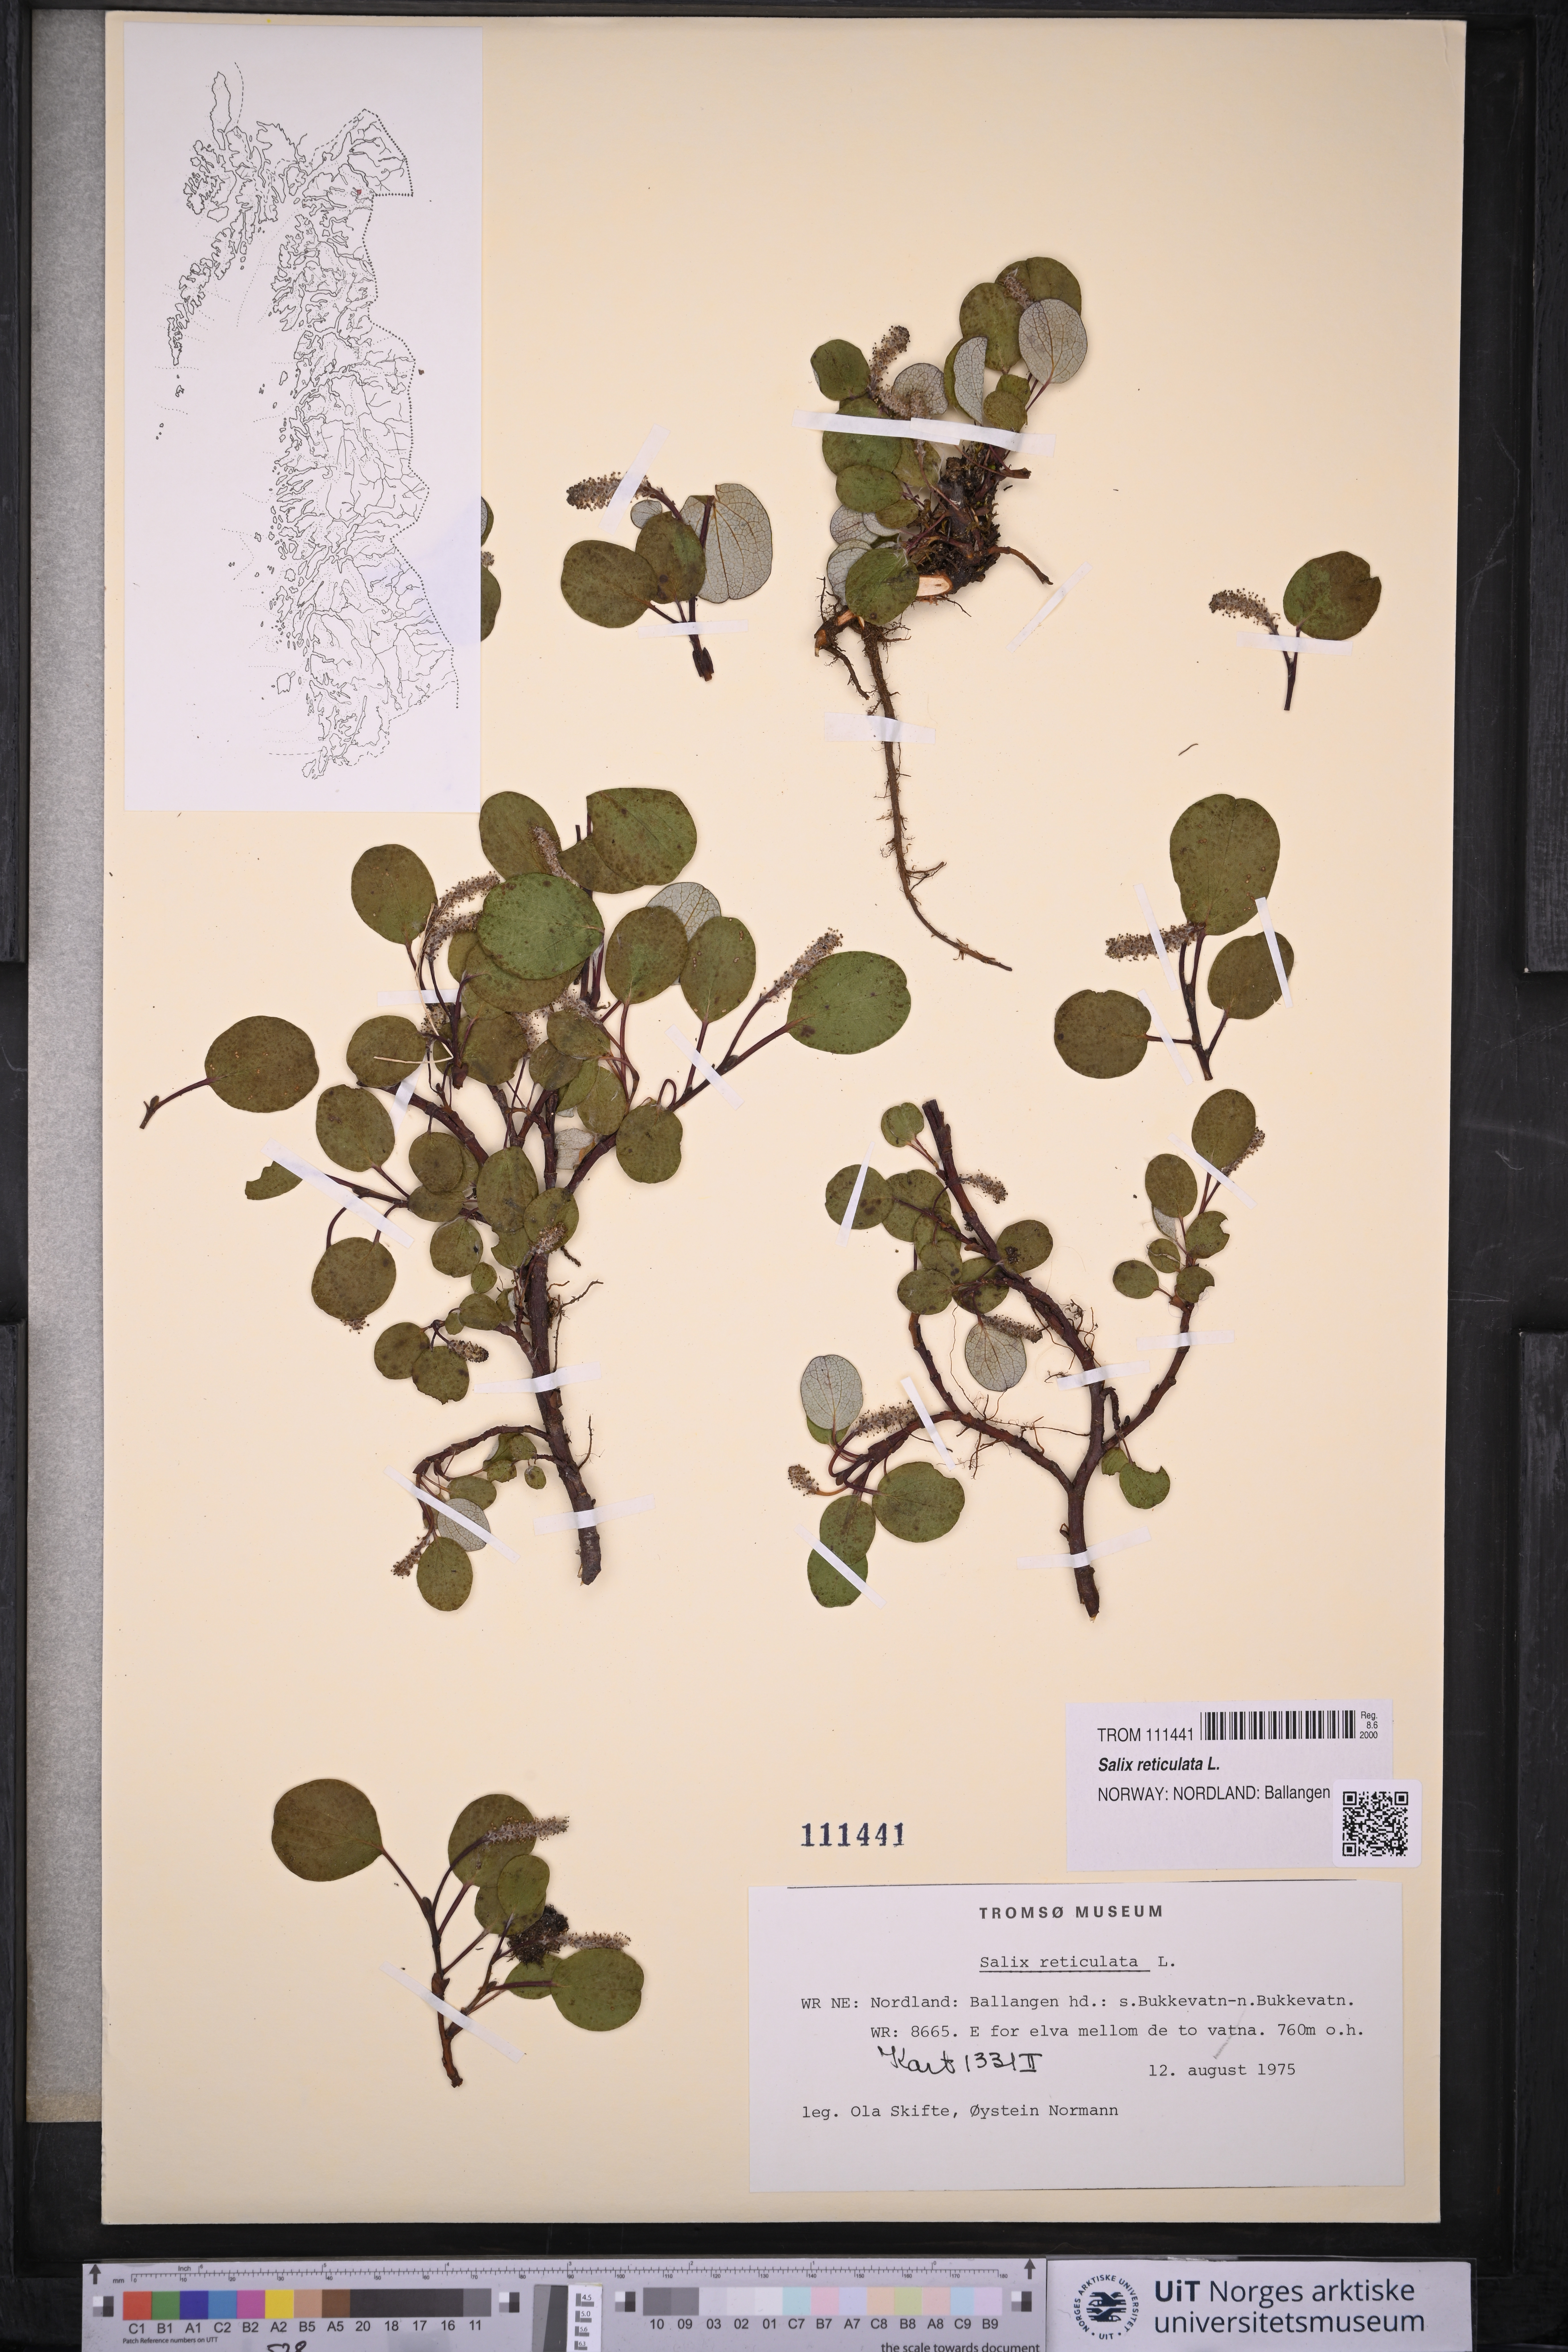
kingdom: Plantae
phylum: Tracheophyta
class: Magnoliopsida
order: Malpighiales
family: Salicaceae
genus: Salix
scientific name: Salix reticulata
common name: Net-leaved willow
